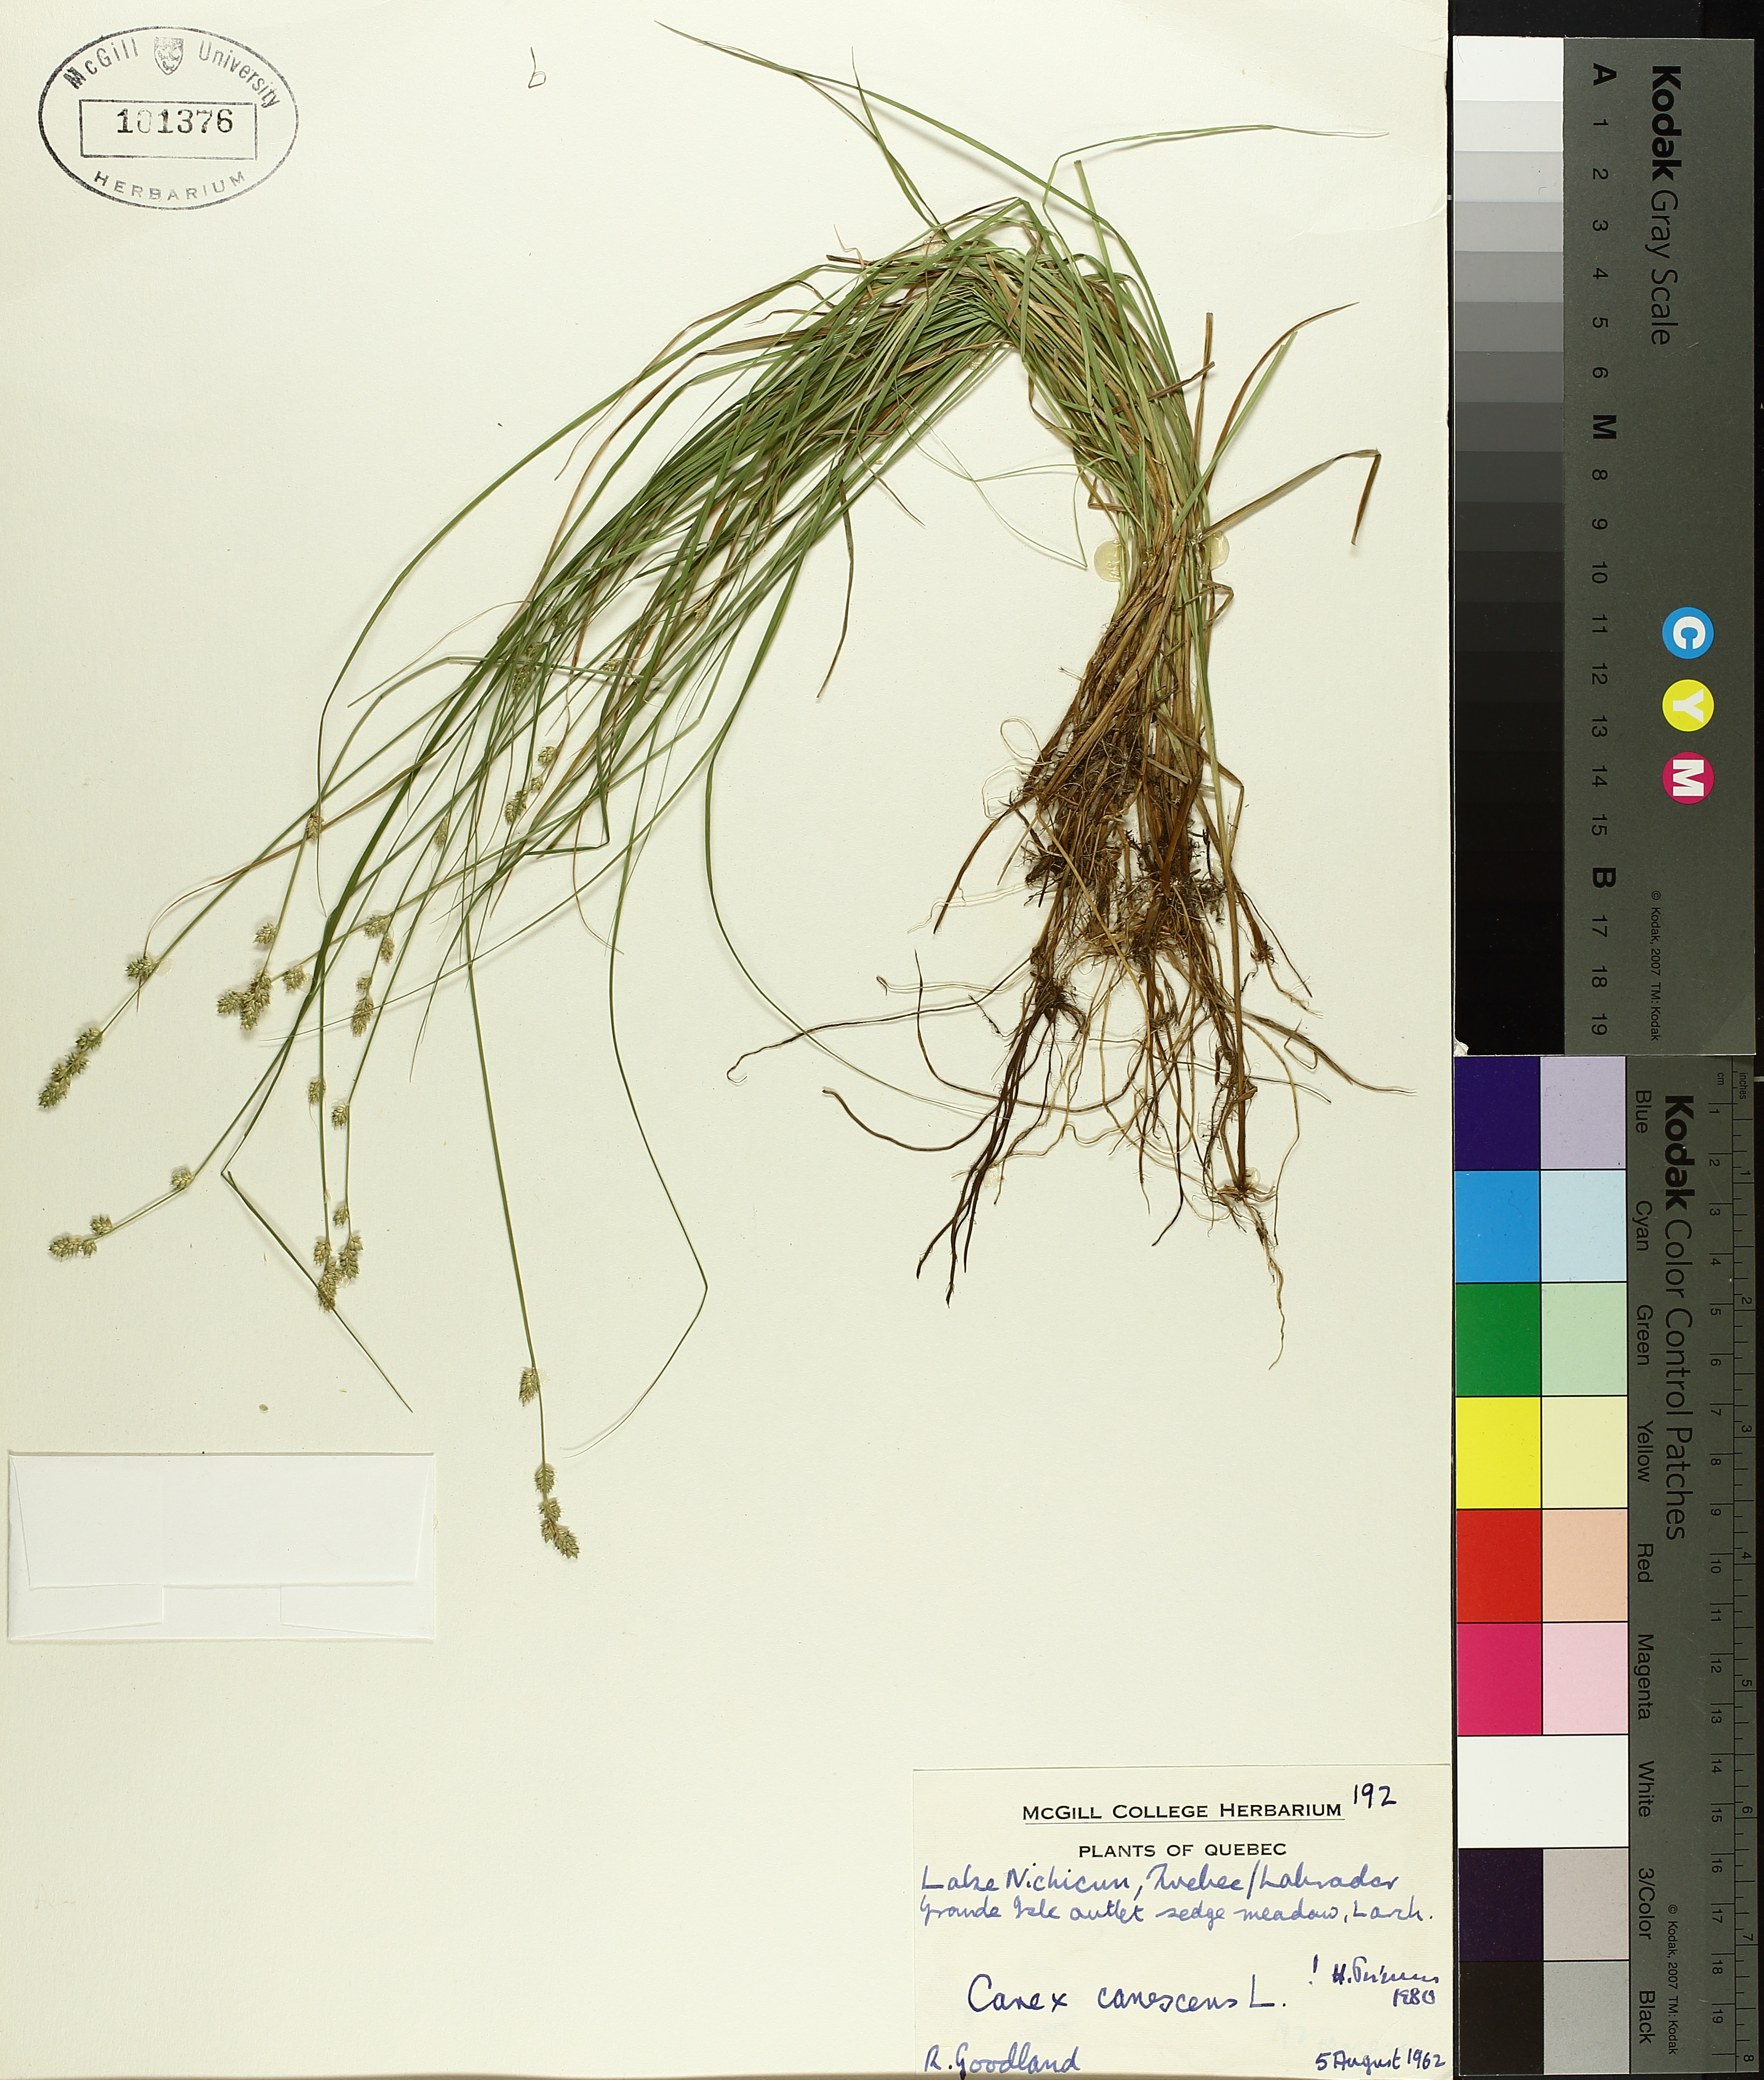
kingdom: Plantae
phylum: Tracheophyta
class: Liliopsida
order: Poales
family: Cyperaceae
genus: Carex
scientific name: Carex canescens
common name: White sedge
